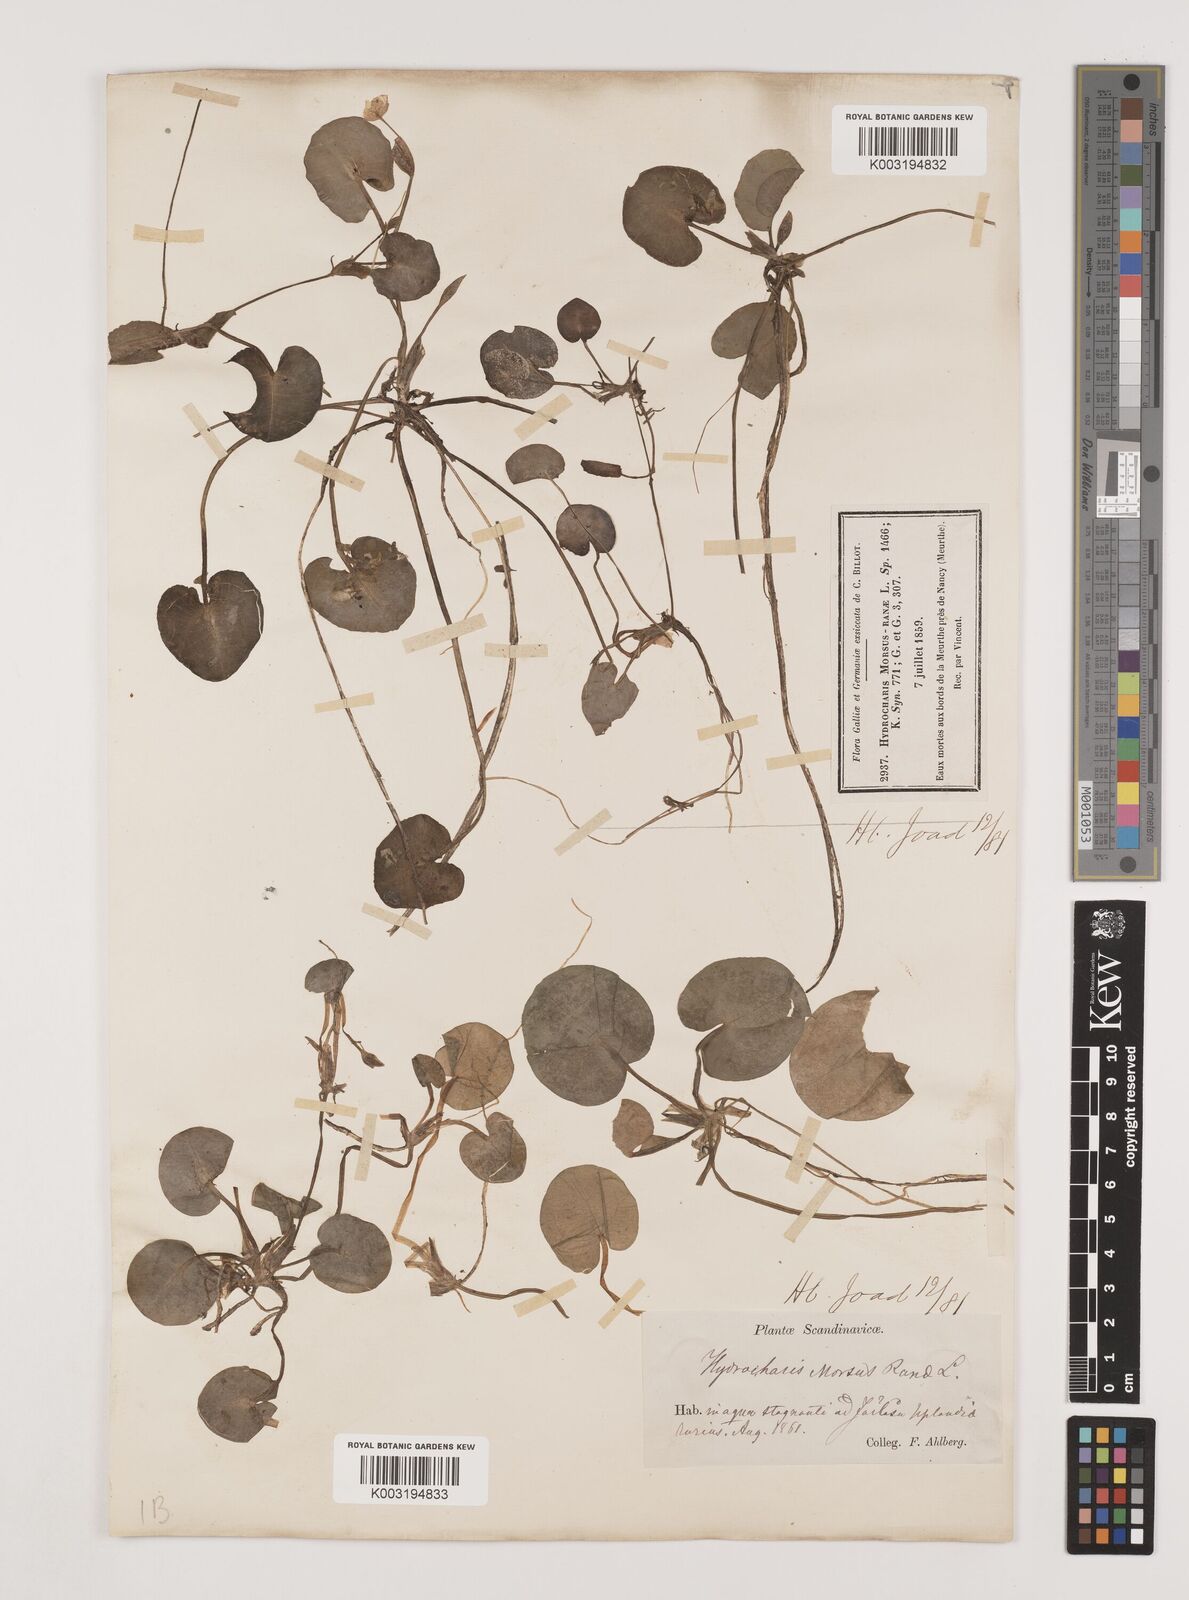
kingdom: Plantae
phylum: Tracheophyta
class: Liliopsida
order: Alismatales
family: Hydrocharitaceae
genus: Hydrocharis
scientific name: Hydrocharis morsus-ranae
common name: Frogbit
